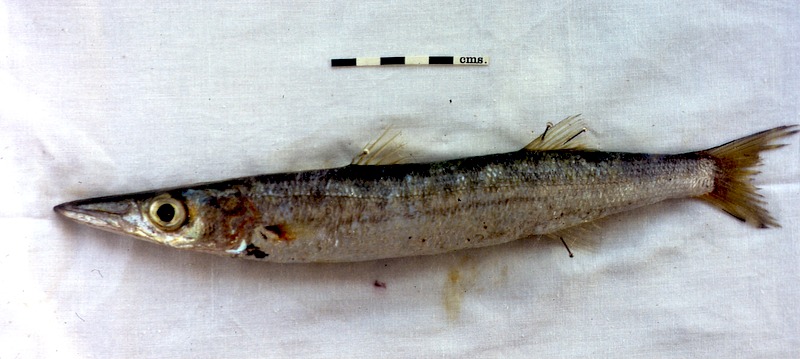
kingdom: Animalia
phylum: Chordata
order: Perciformes
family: Sphyraenidae
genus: Sphyraena
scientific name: Sphyraena jello
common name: Pickhandle barracuda
